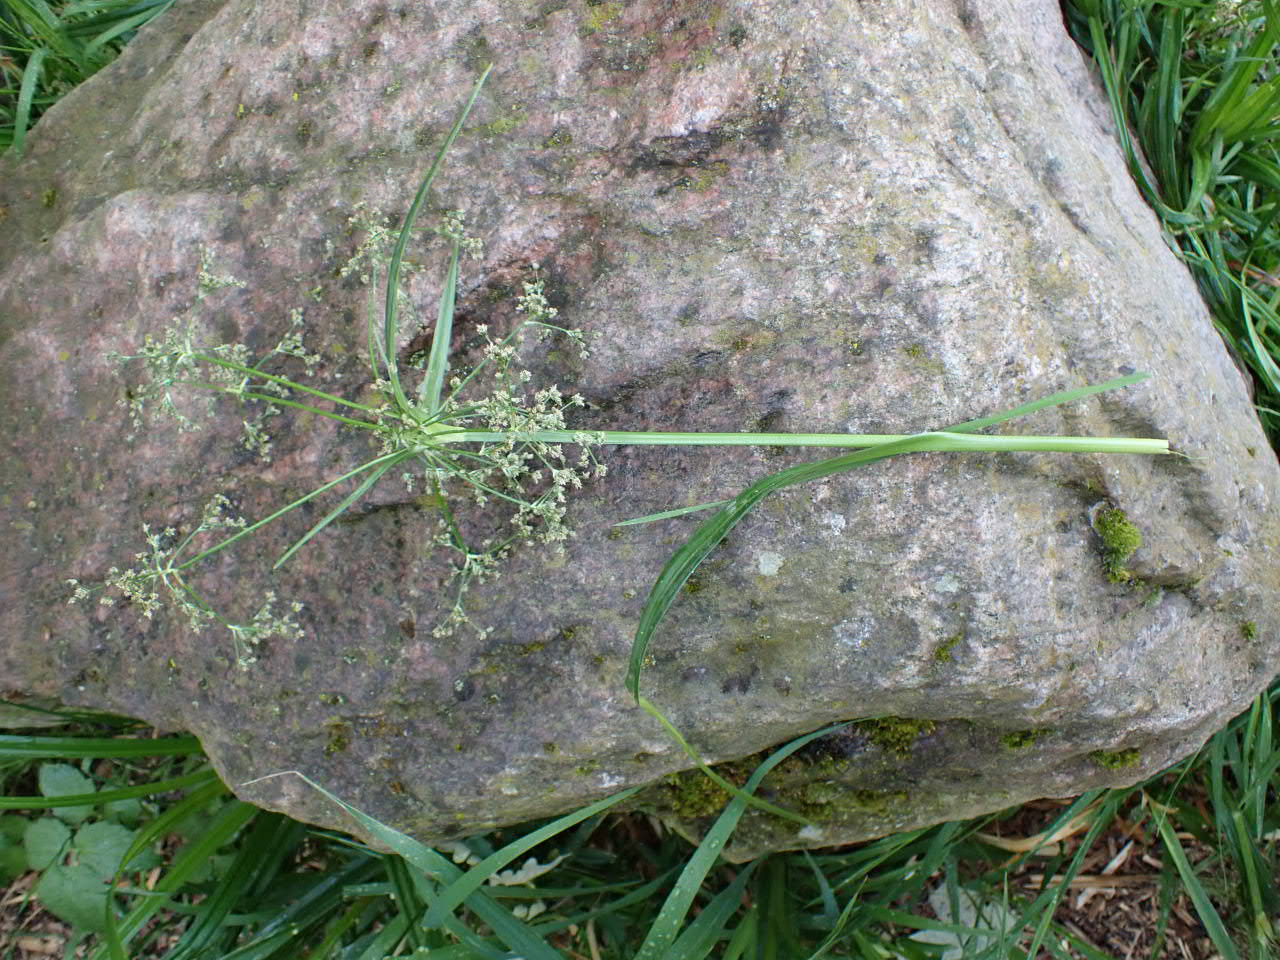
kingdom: Plantae
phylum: Tracheophyta
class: Liliopsida
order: Poales
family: Cyperaceae
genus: Scirpus
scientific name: Scirpus sylvaticus
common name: Skov-kogleaks
